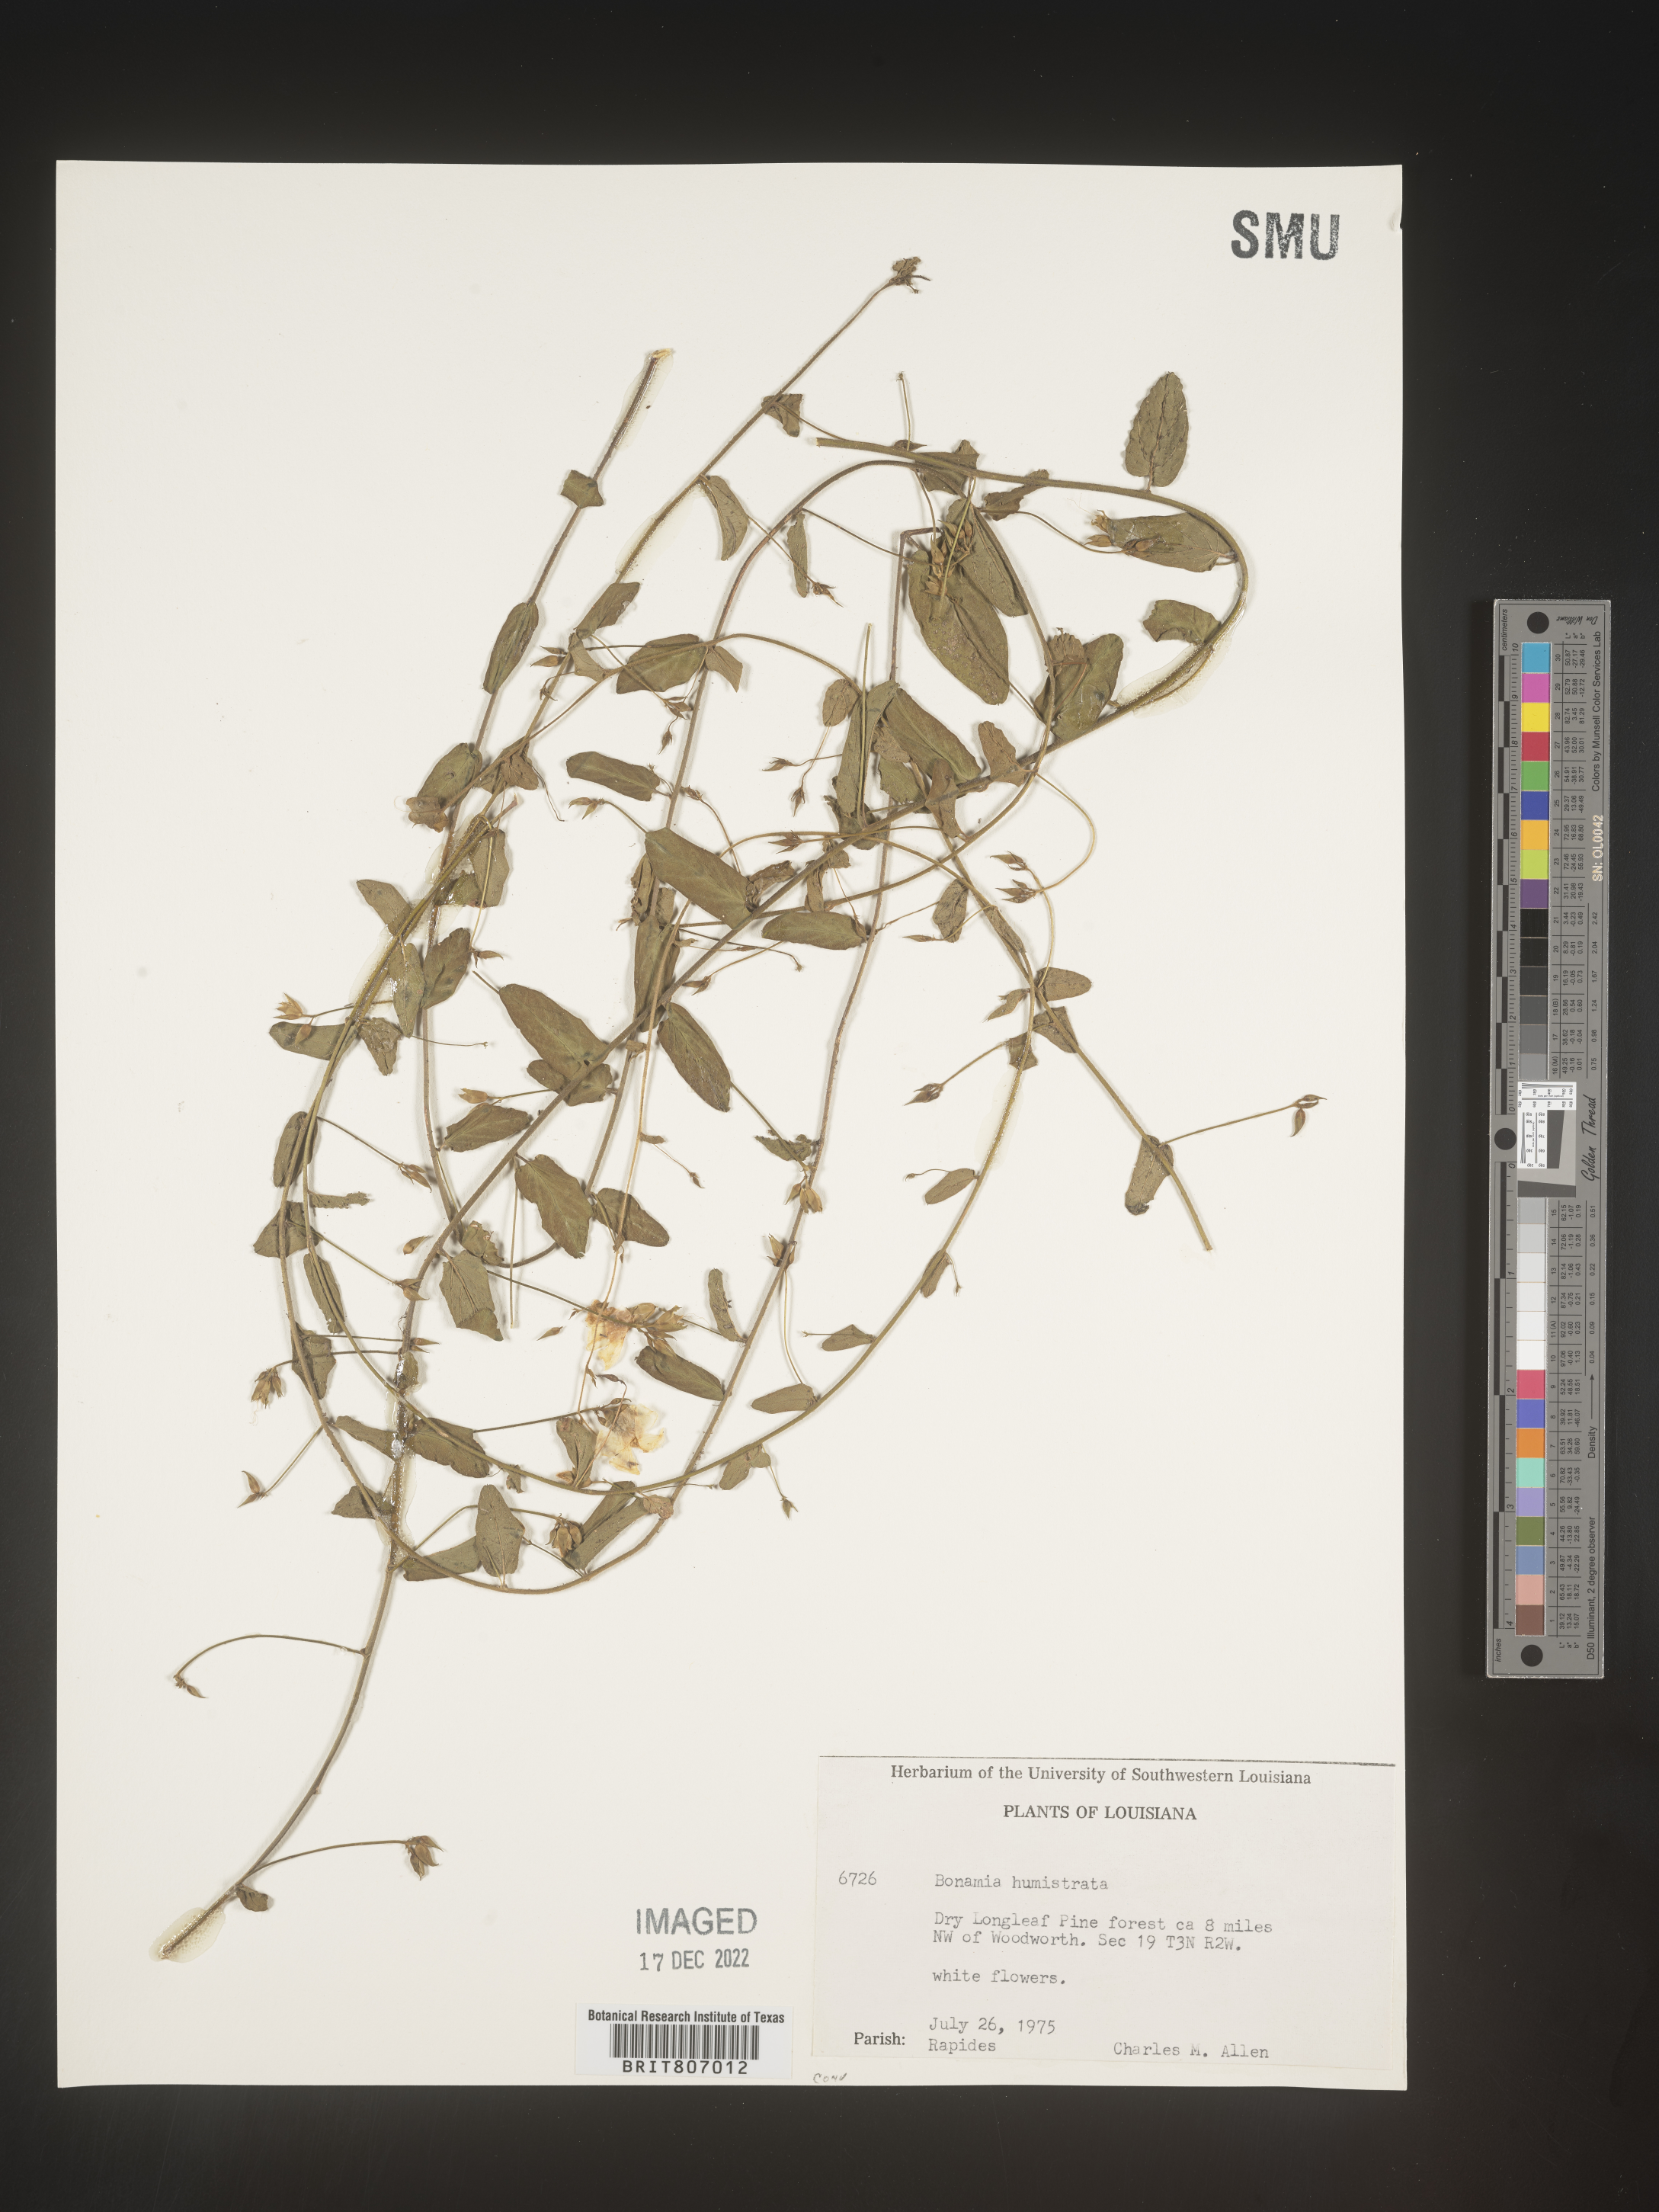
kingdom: Plantae
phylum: Tracheophyta
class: Magnoliopsida
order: Solanales
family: Convolvulaceae
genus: Stylisma
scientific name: Stylisma humistrata
